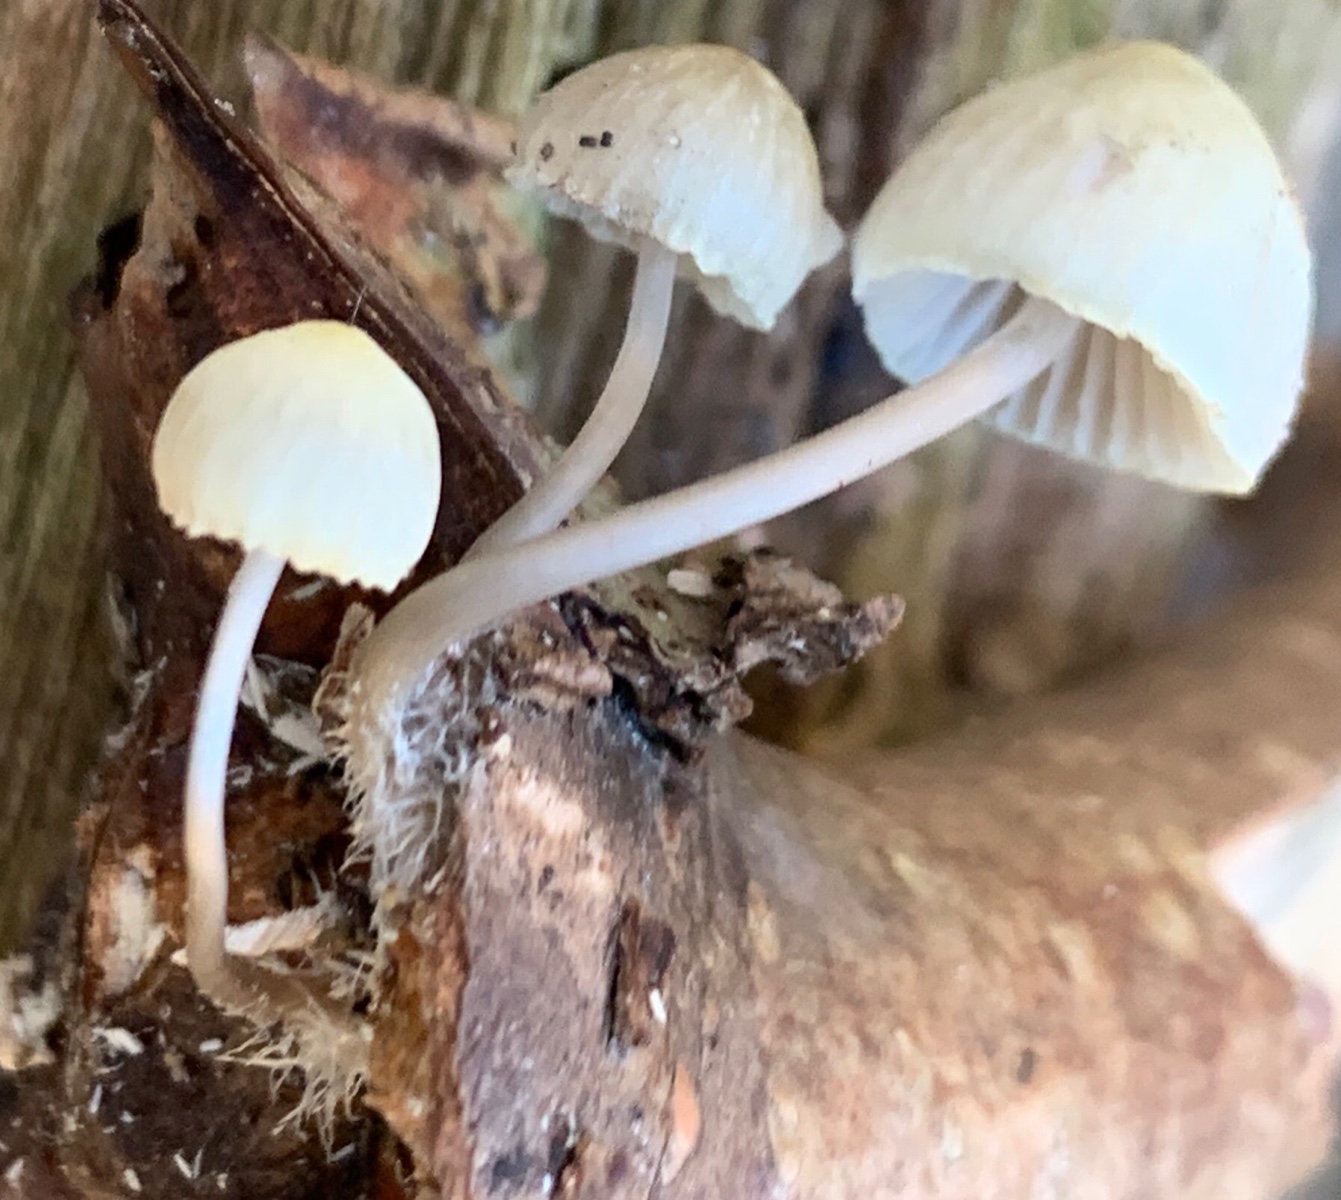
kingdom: Fungi
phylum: Basidiomycota
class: Agaricomycetes
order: Agaricales
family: Mycenaceae
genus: Mycena
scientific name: Mycena arcangeliana
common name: oliven-huesvamp
